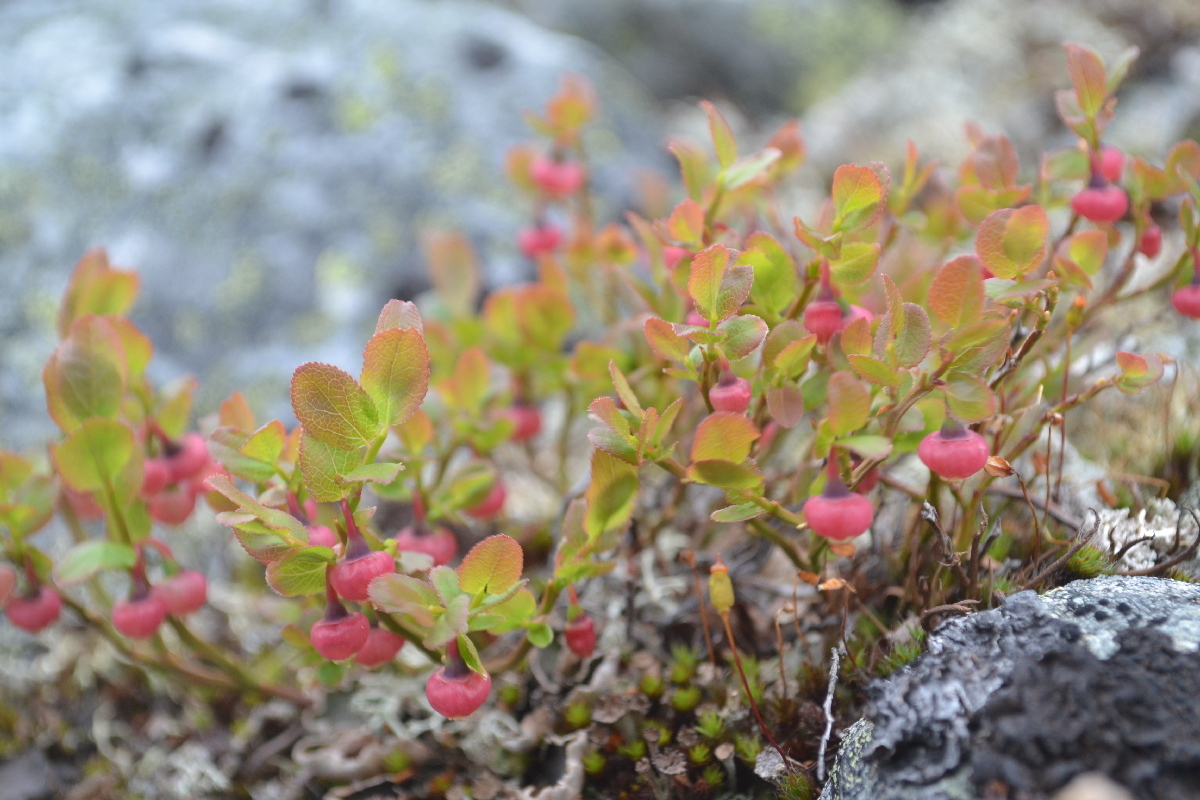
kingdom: Plantae
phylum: Tracheophyta
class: Magnoliopsida
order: Ericales
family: Ericaceae
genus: Vaccinium
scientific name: Vaccinium myrtillus
